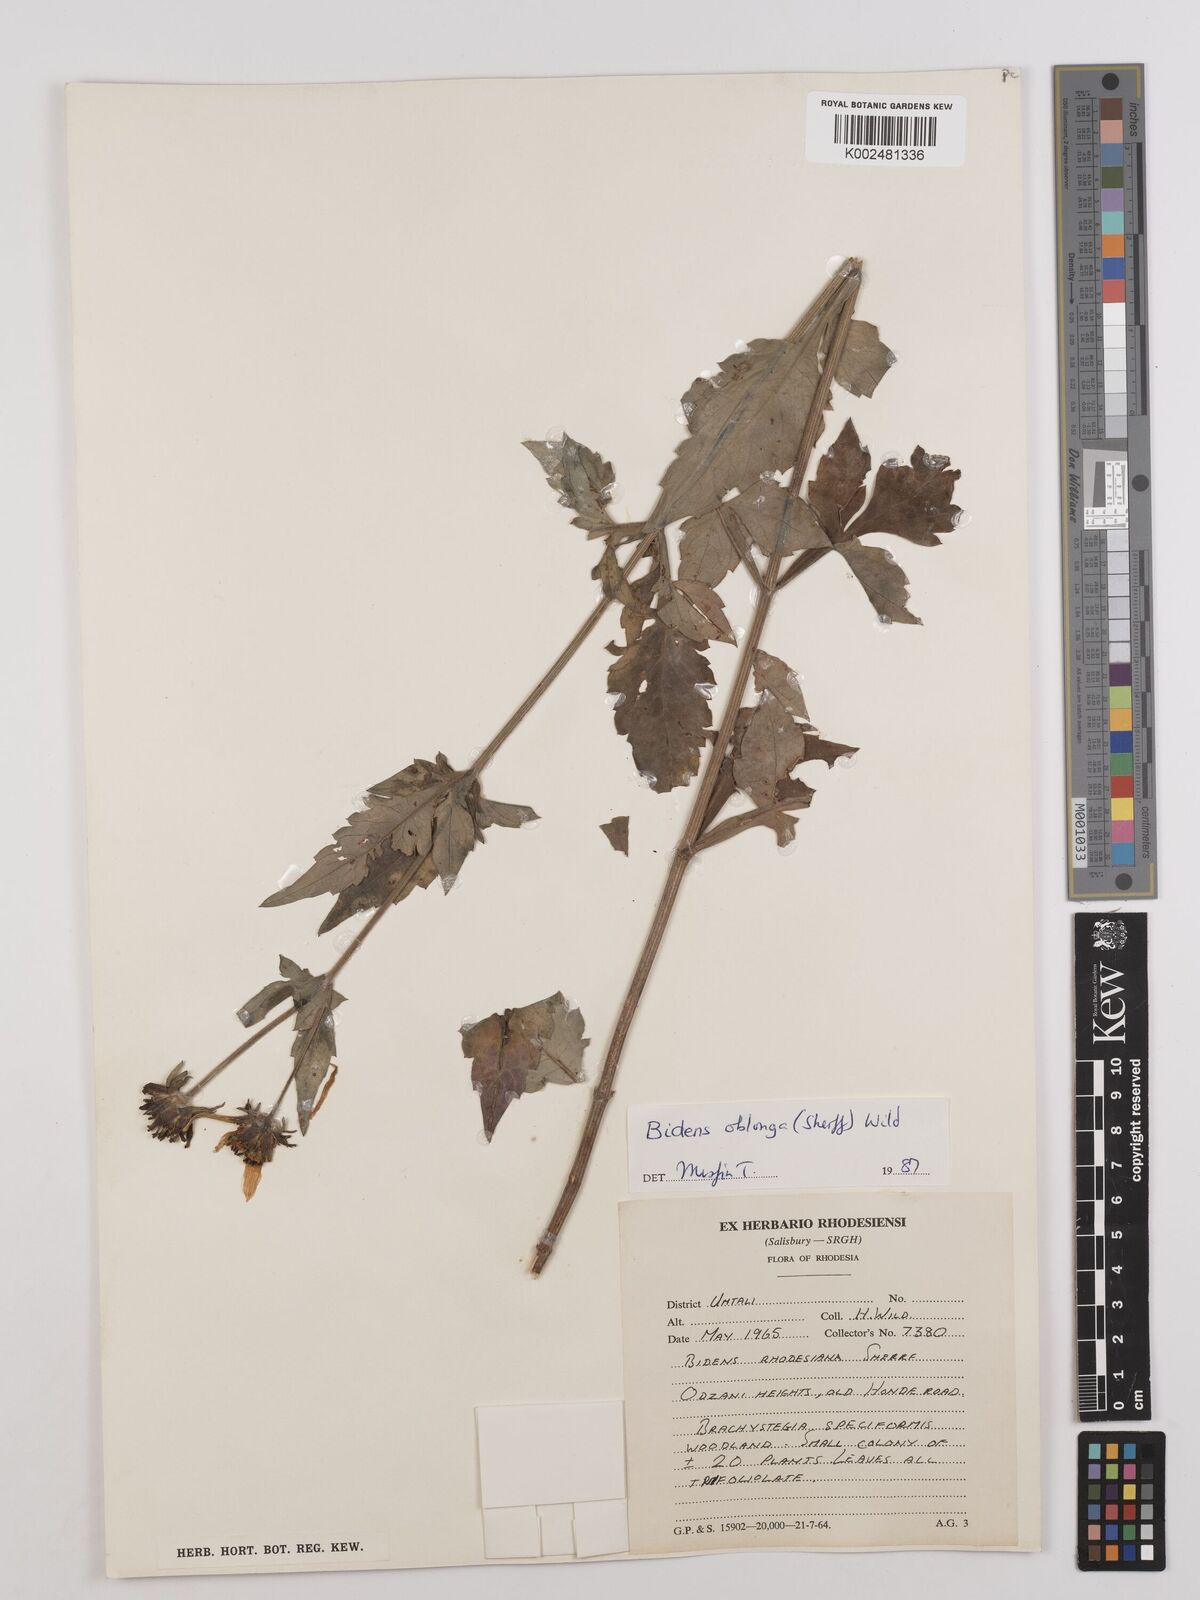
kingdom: Plantae
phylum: Tracheophyta
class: Magnoliopsida
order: Asterales
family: Asteraceae
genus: Bidens
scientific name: Bidens oblonga
